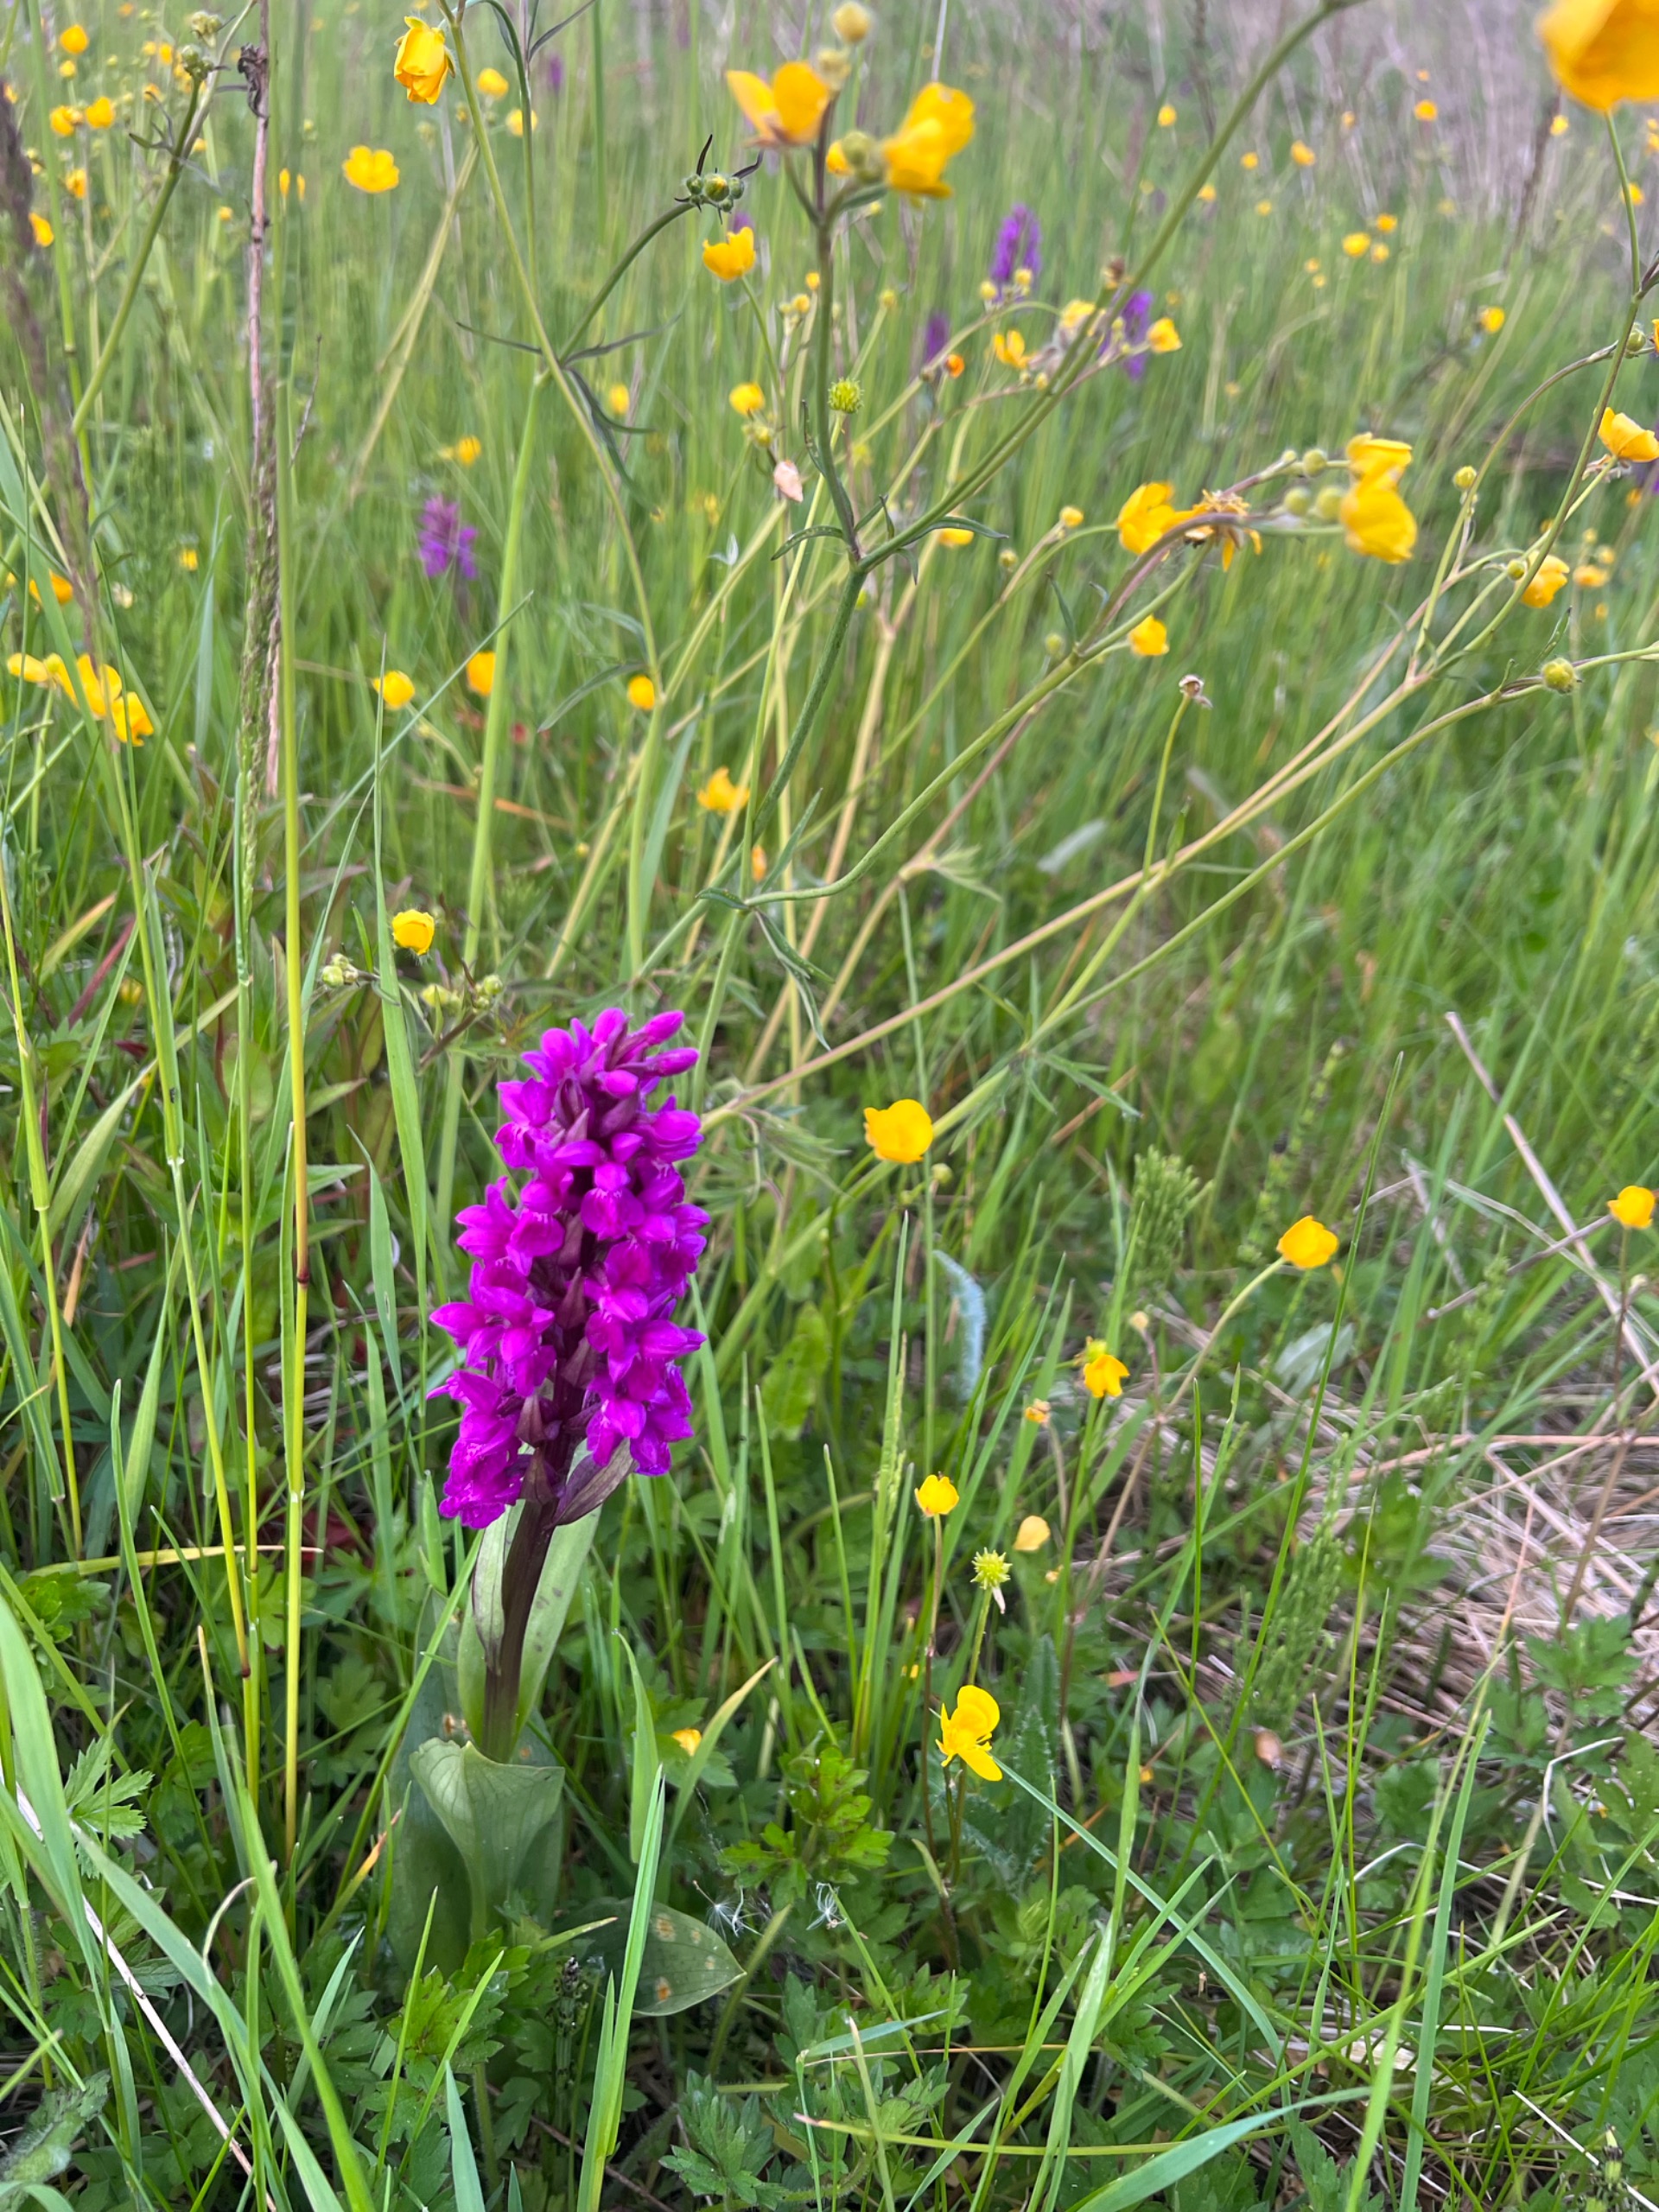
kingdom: Plantae
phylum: Tracheophyta
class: Liliopsida
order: Asparagales
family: Orchidaceae
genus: Dactylorhiza
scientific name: Dactylorhiza majalis
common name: Maj-gøgeurt
